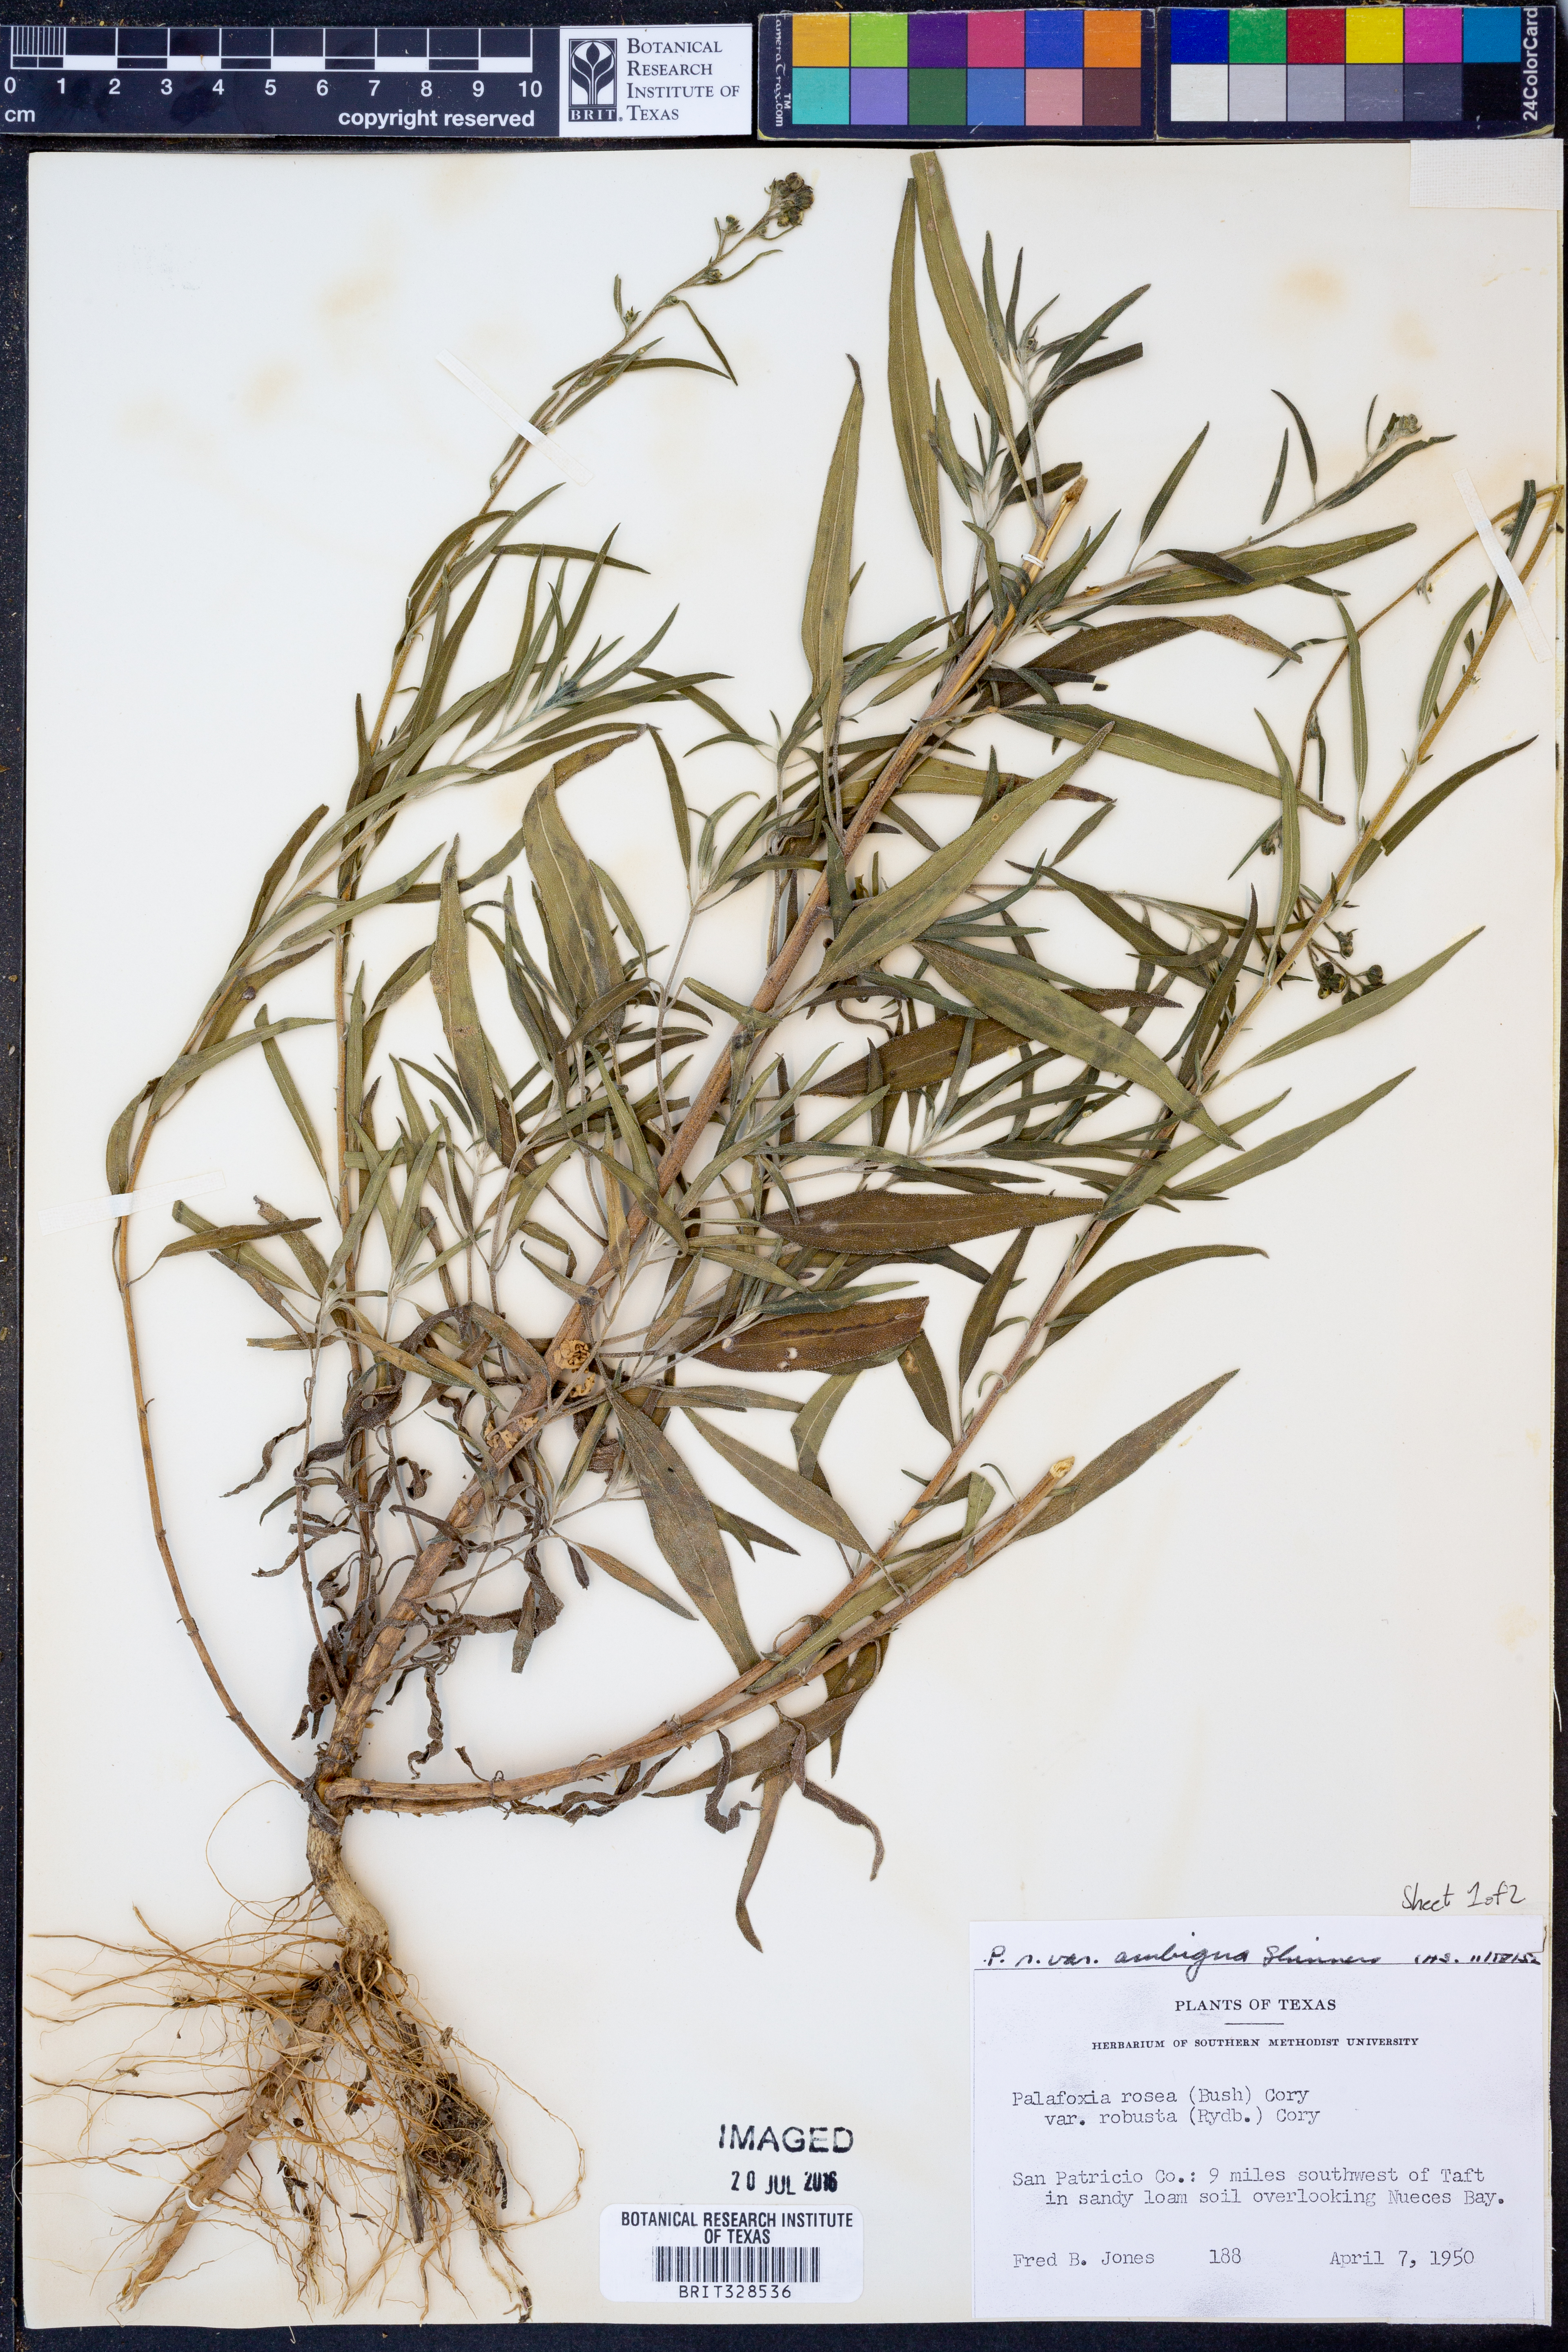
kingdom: Plantae
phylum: Tracheophyta
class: Magnoliopsida
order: Asterales
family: Asteraceae
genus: Palafoxia
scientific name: Palafoxia texana
